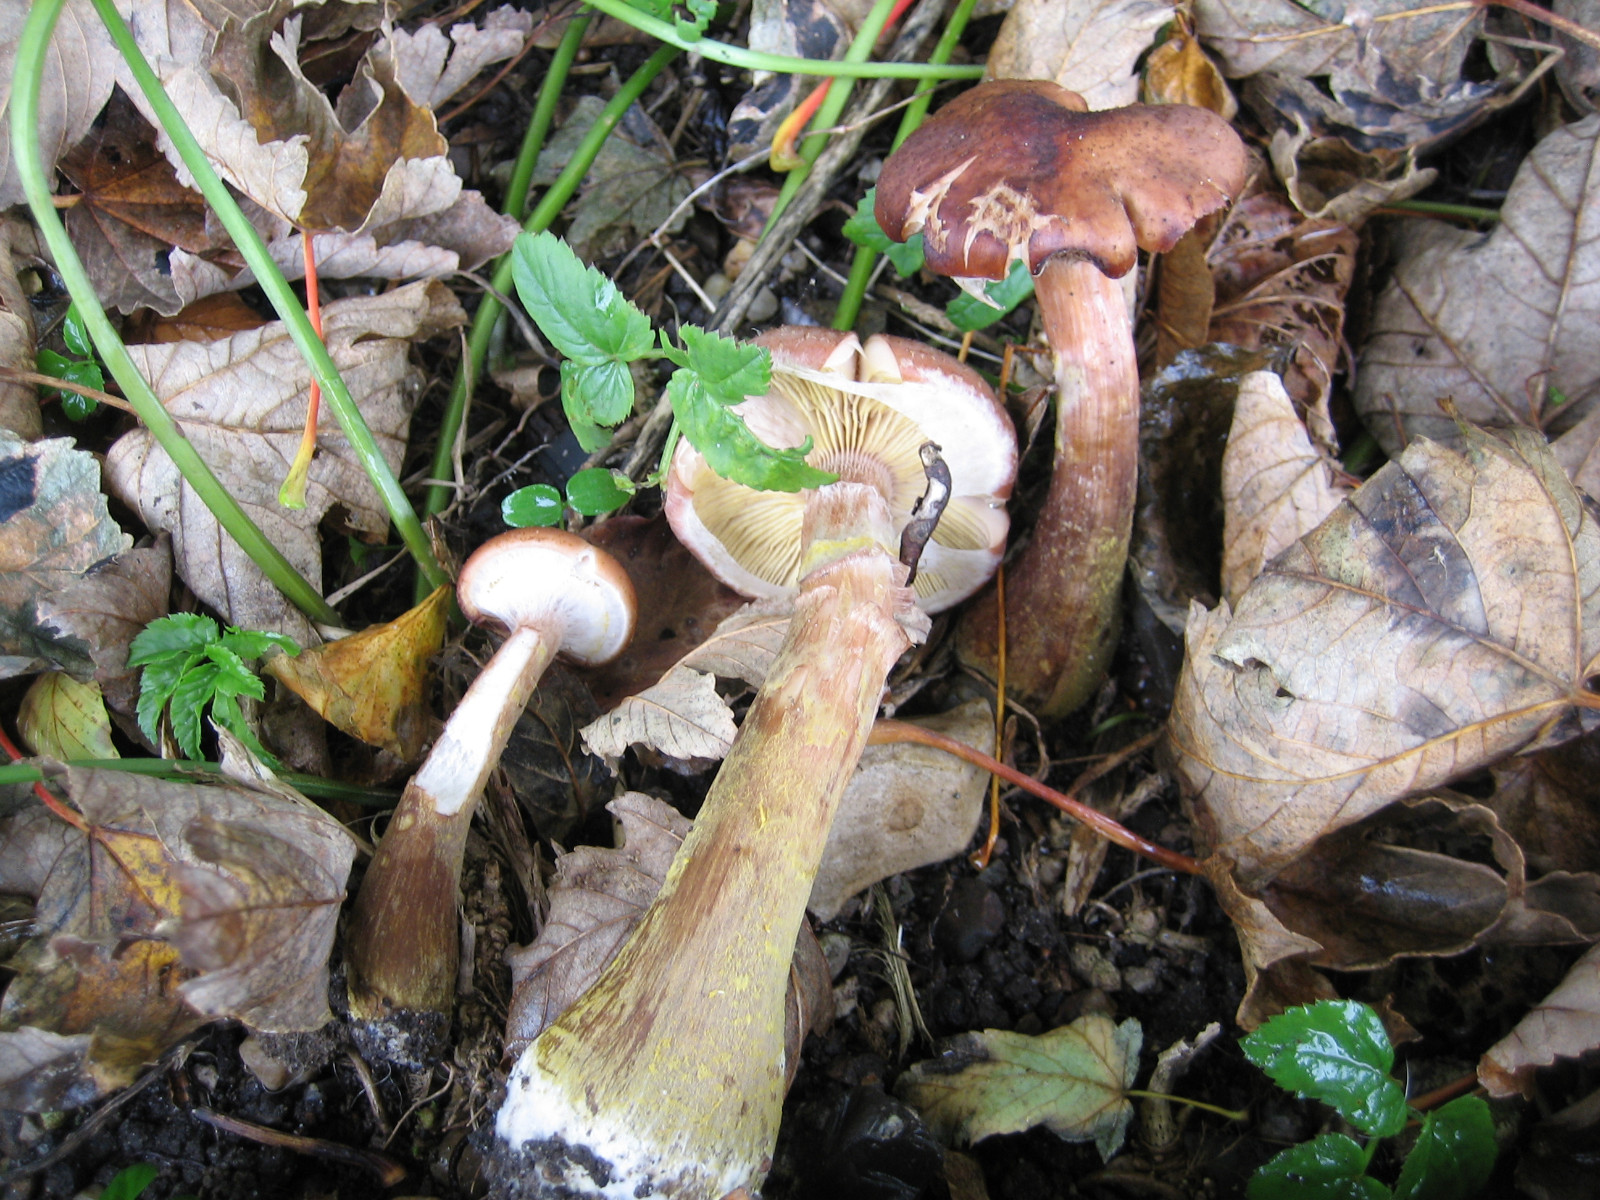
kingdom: Fungi
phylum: Basidiomycota
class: Agaricomycetes
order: Agaricales
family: Physalacriaceae
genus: Armillaria
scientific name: Armillaria lutea
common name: køllestokket honningsvamp
